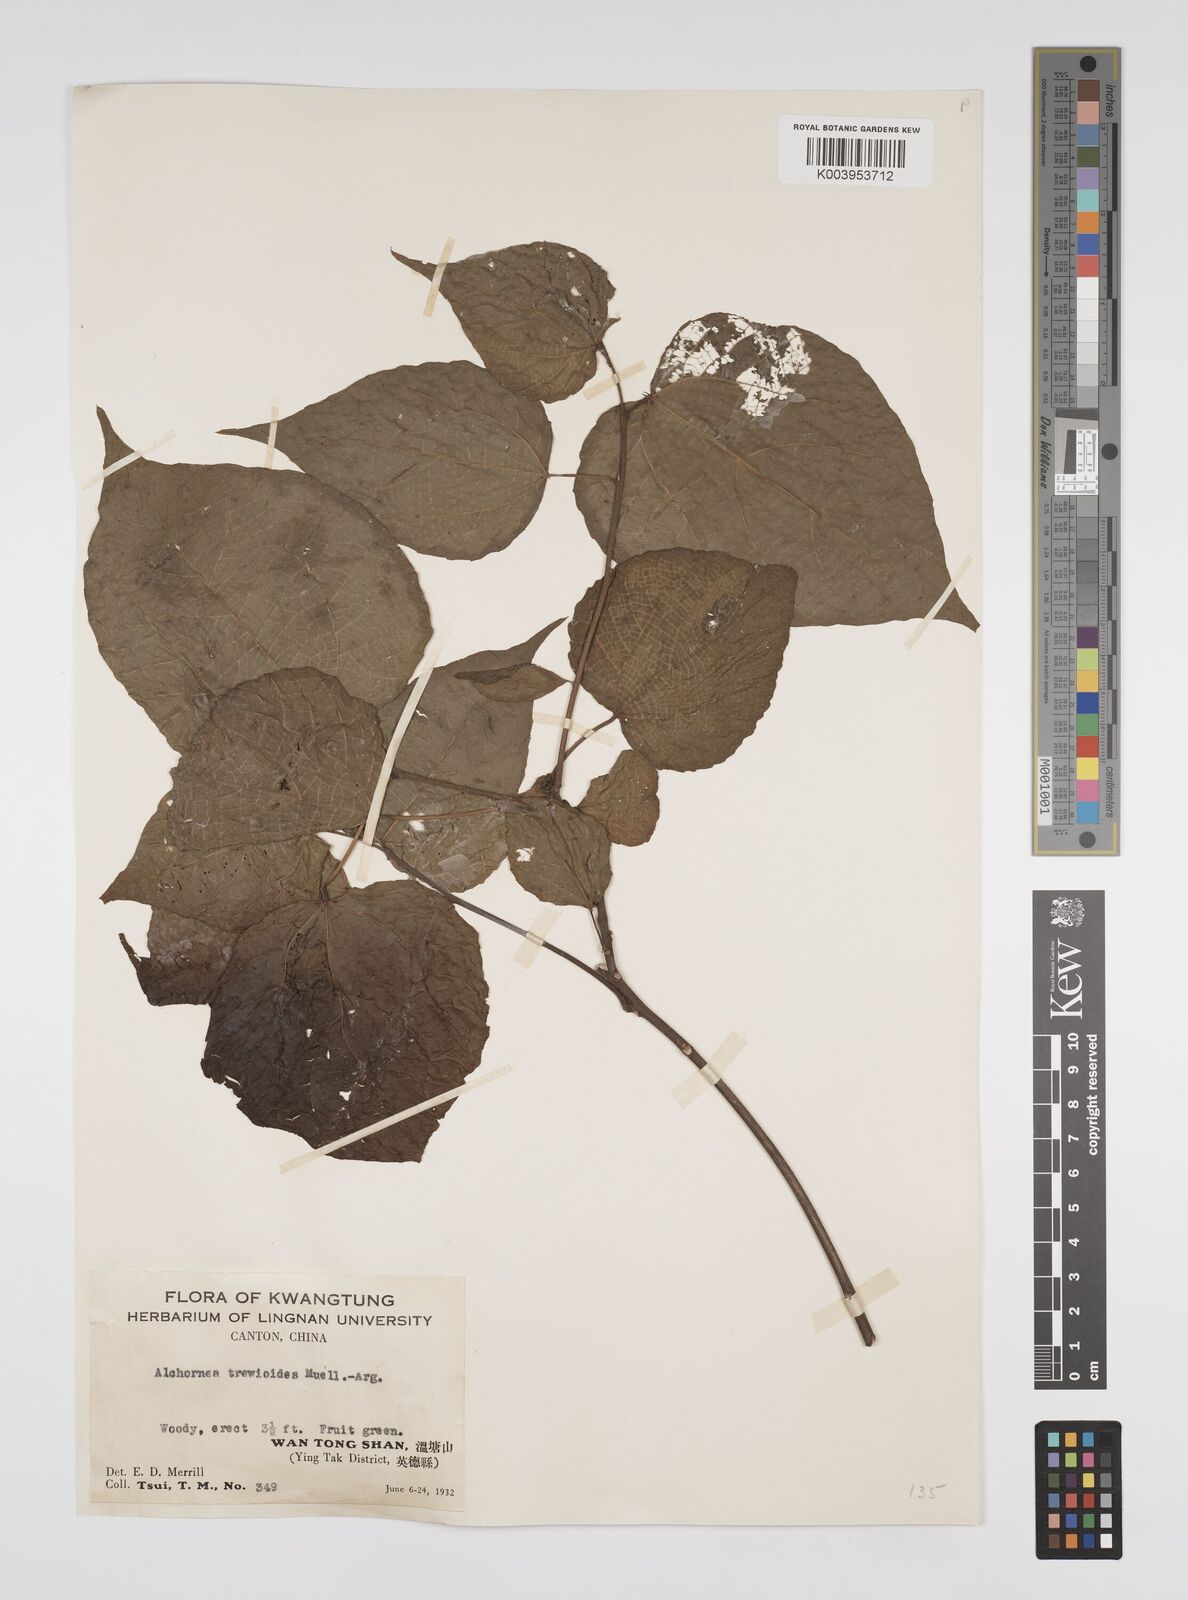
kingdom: Plantae
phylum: Tracheophyta
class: Magnoliopsida
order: Malpighiales
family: Euphorbiaceae
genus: Alchornea
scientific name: Alchornea trewioides
